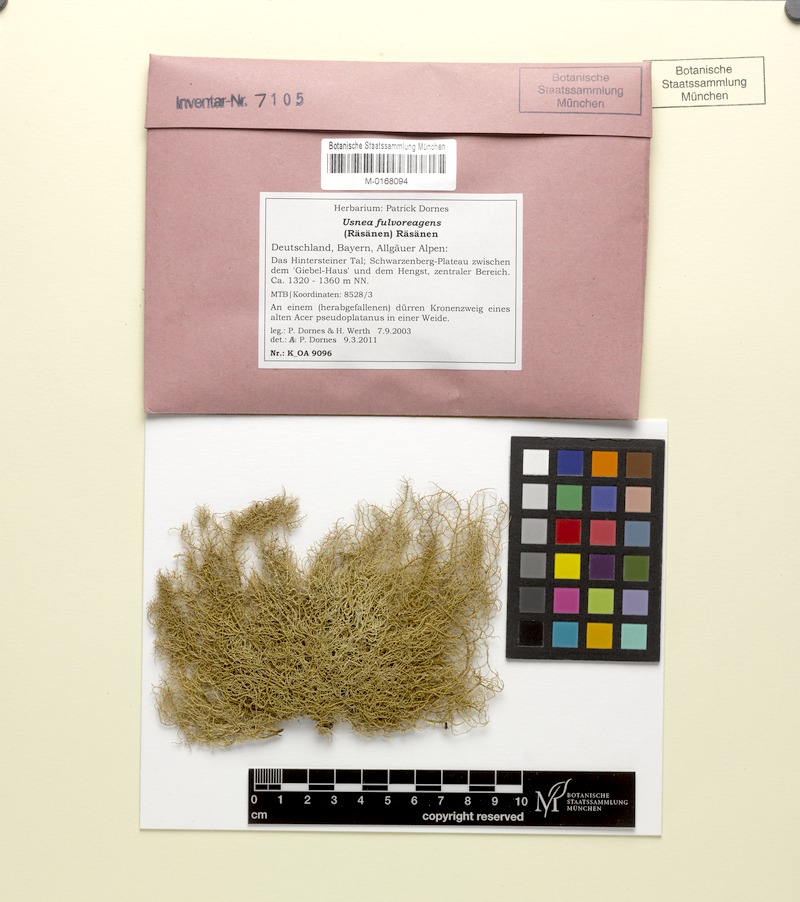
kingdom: Fungi
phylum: Ascomycota
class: Lecanoromycetes
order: Lecanorales
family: Parmeliaceae
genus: Usnea
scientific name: Usnea fulvoreagens
